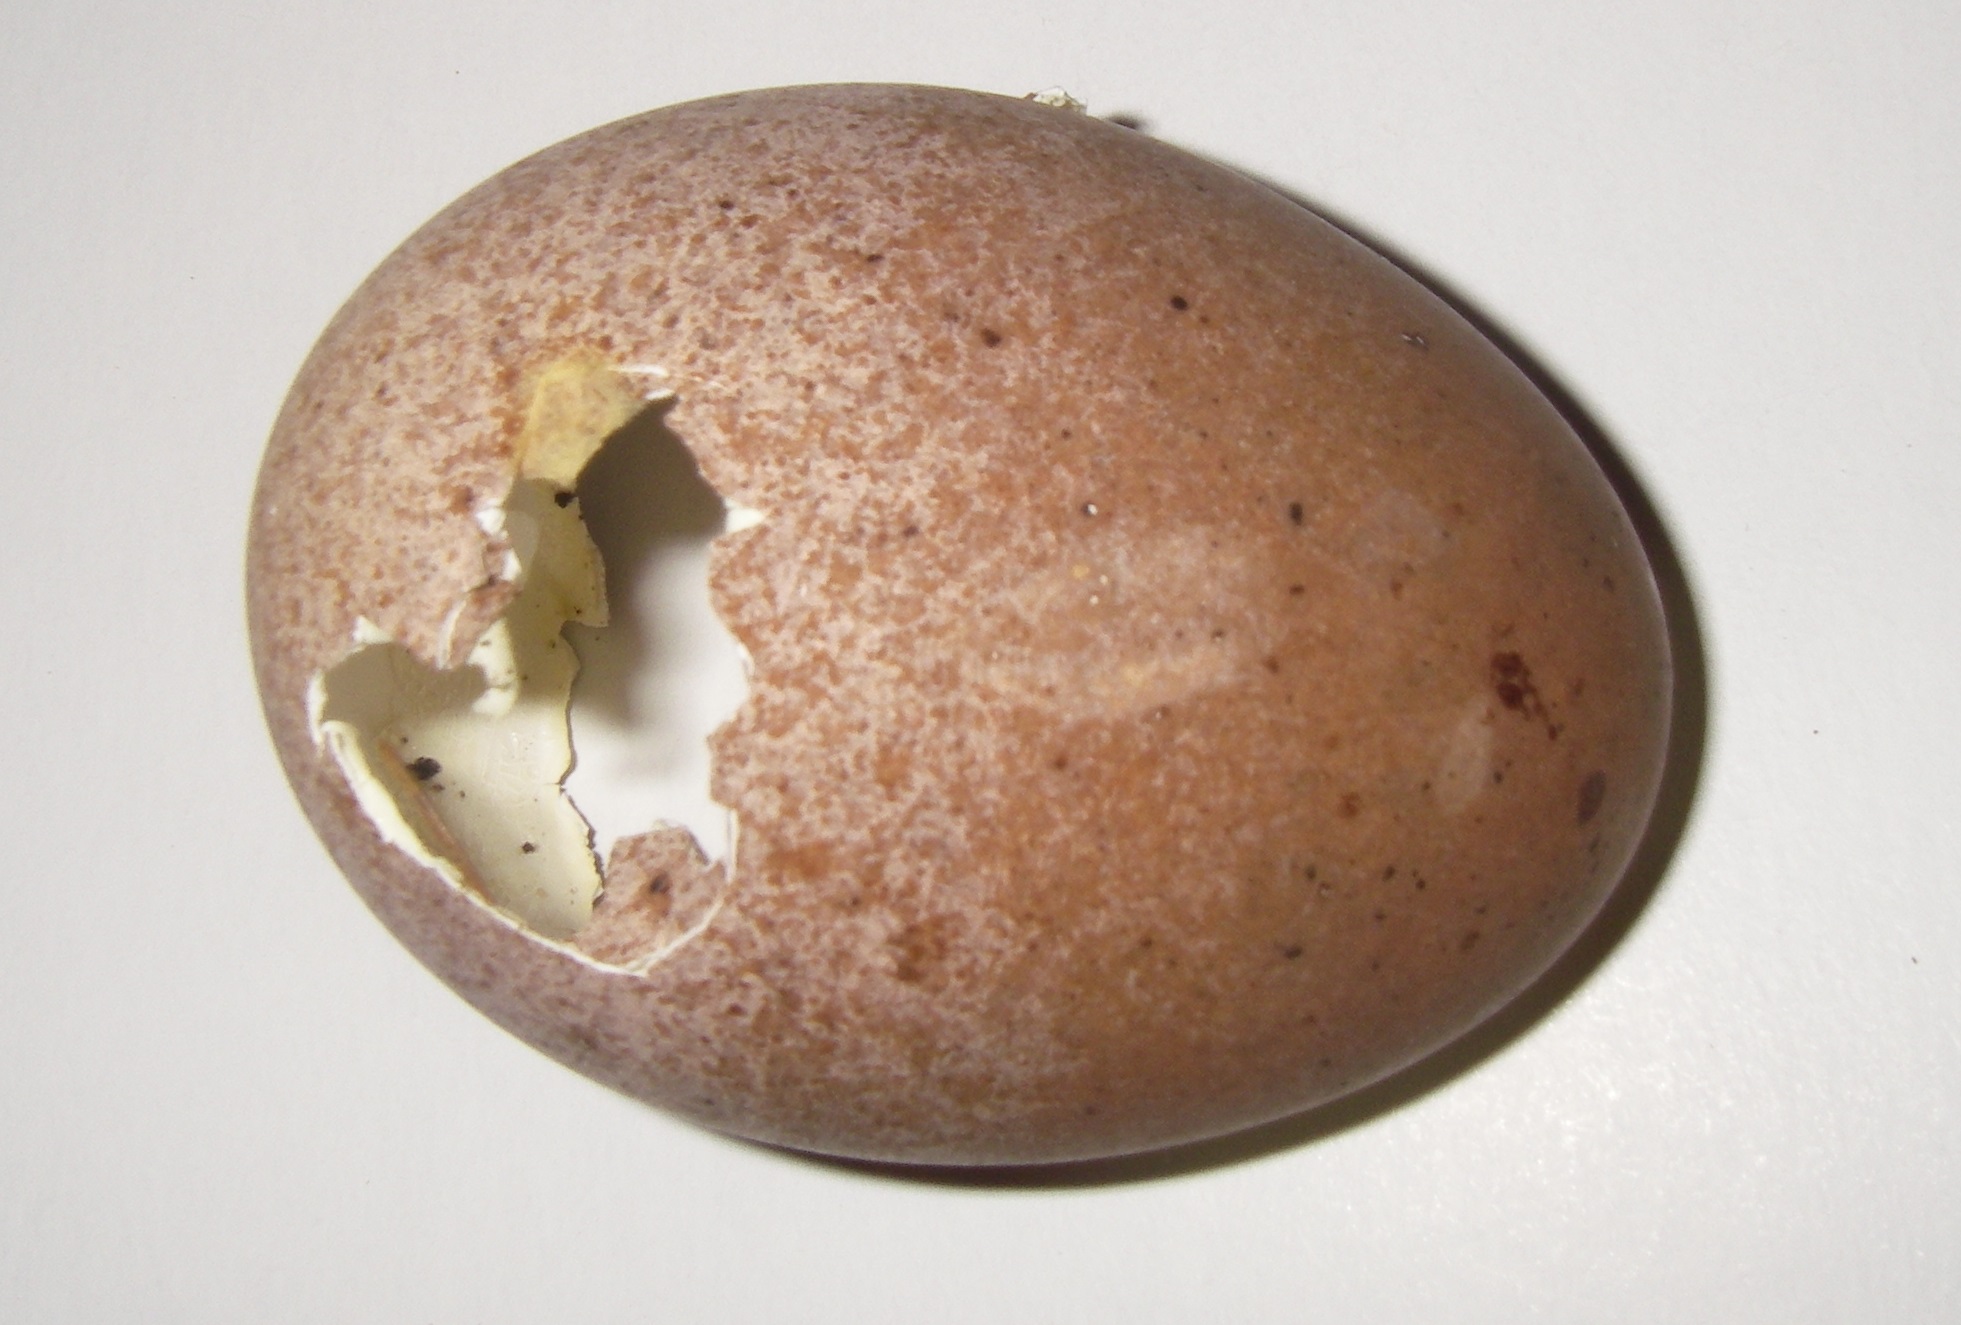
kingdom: Animalia
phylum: Chordata
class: Aves
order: Falconiformes
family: Falconidae
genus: Falco
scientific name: Falco peregrinus
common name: Peregrine falcon
